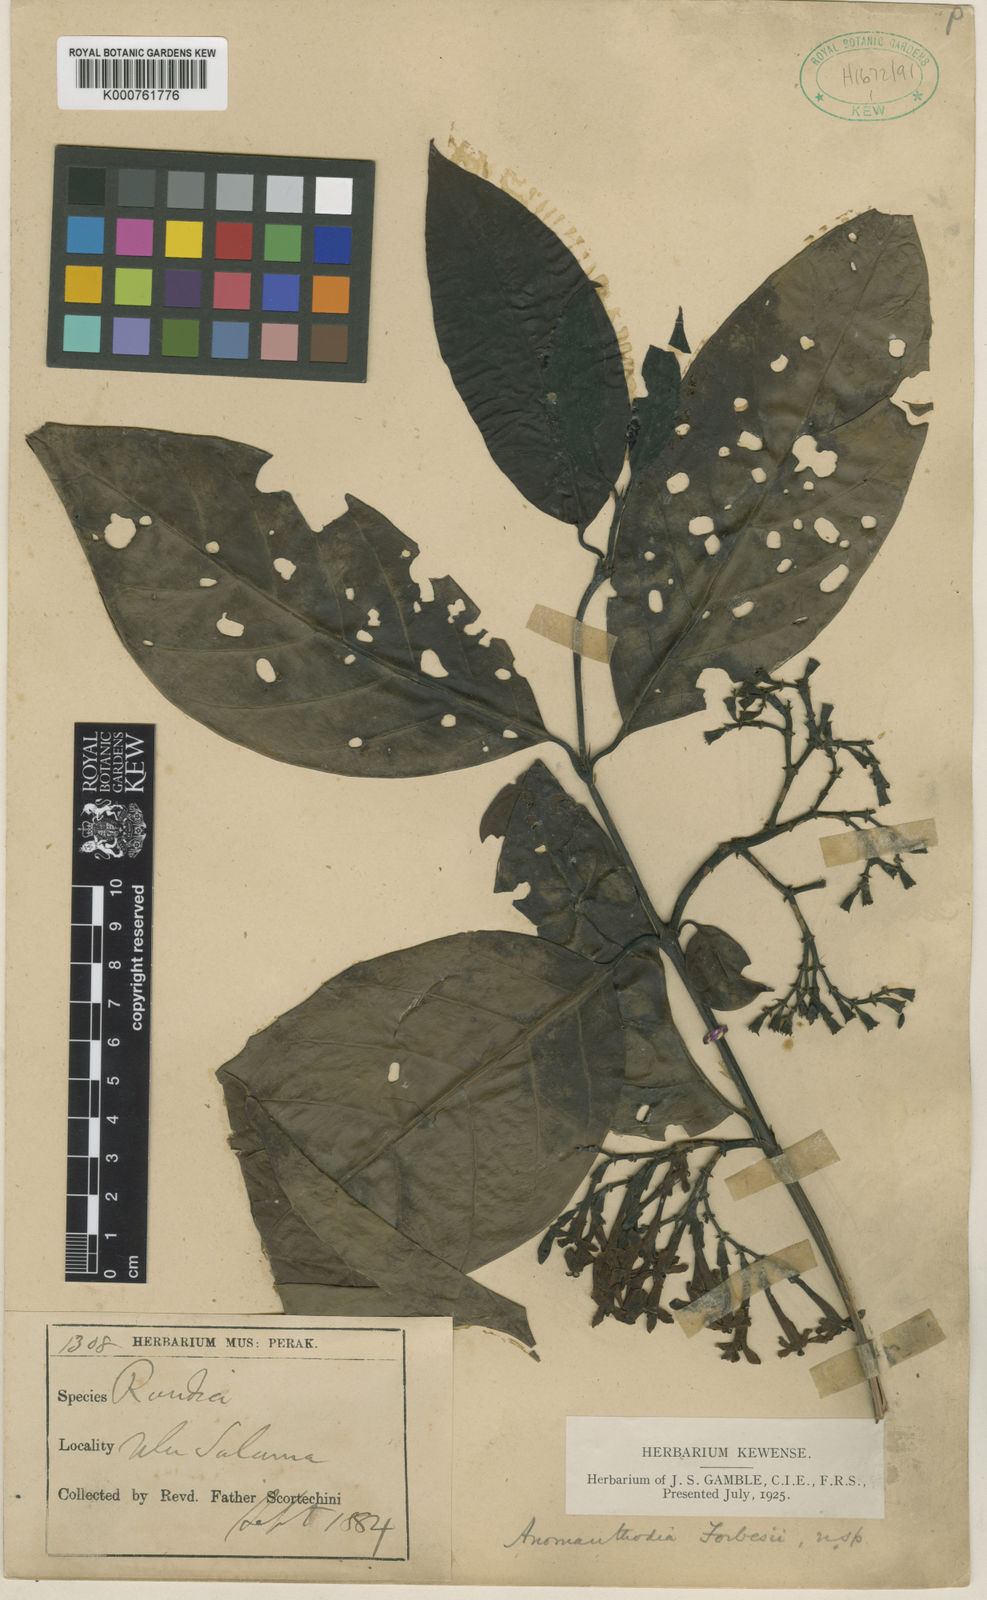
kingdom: Plantae
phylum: Tracheophyta
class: Magnoliopsida
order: Gentianales
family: Rubiaceae
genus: Aidiopsis
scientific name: Aidiopsis orophila
